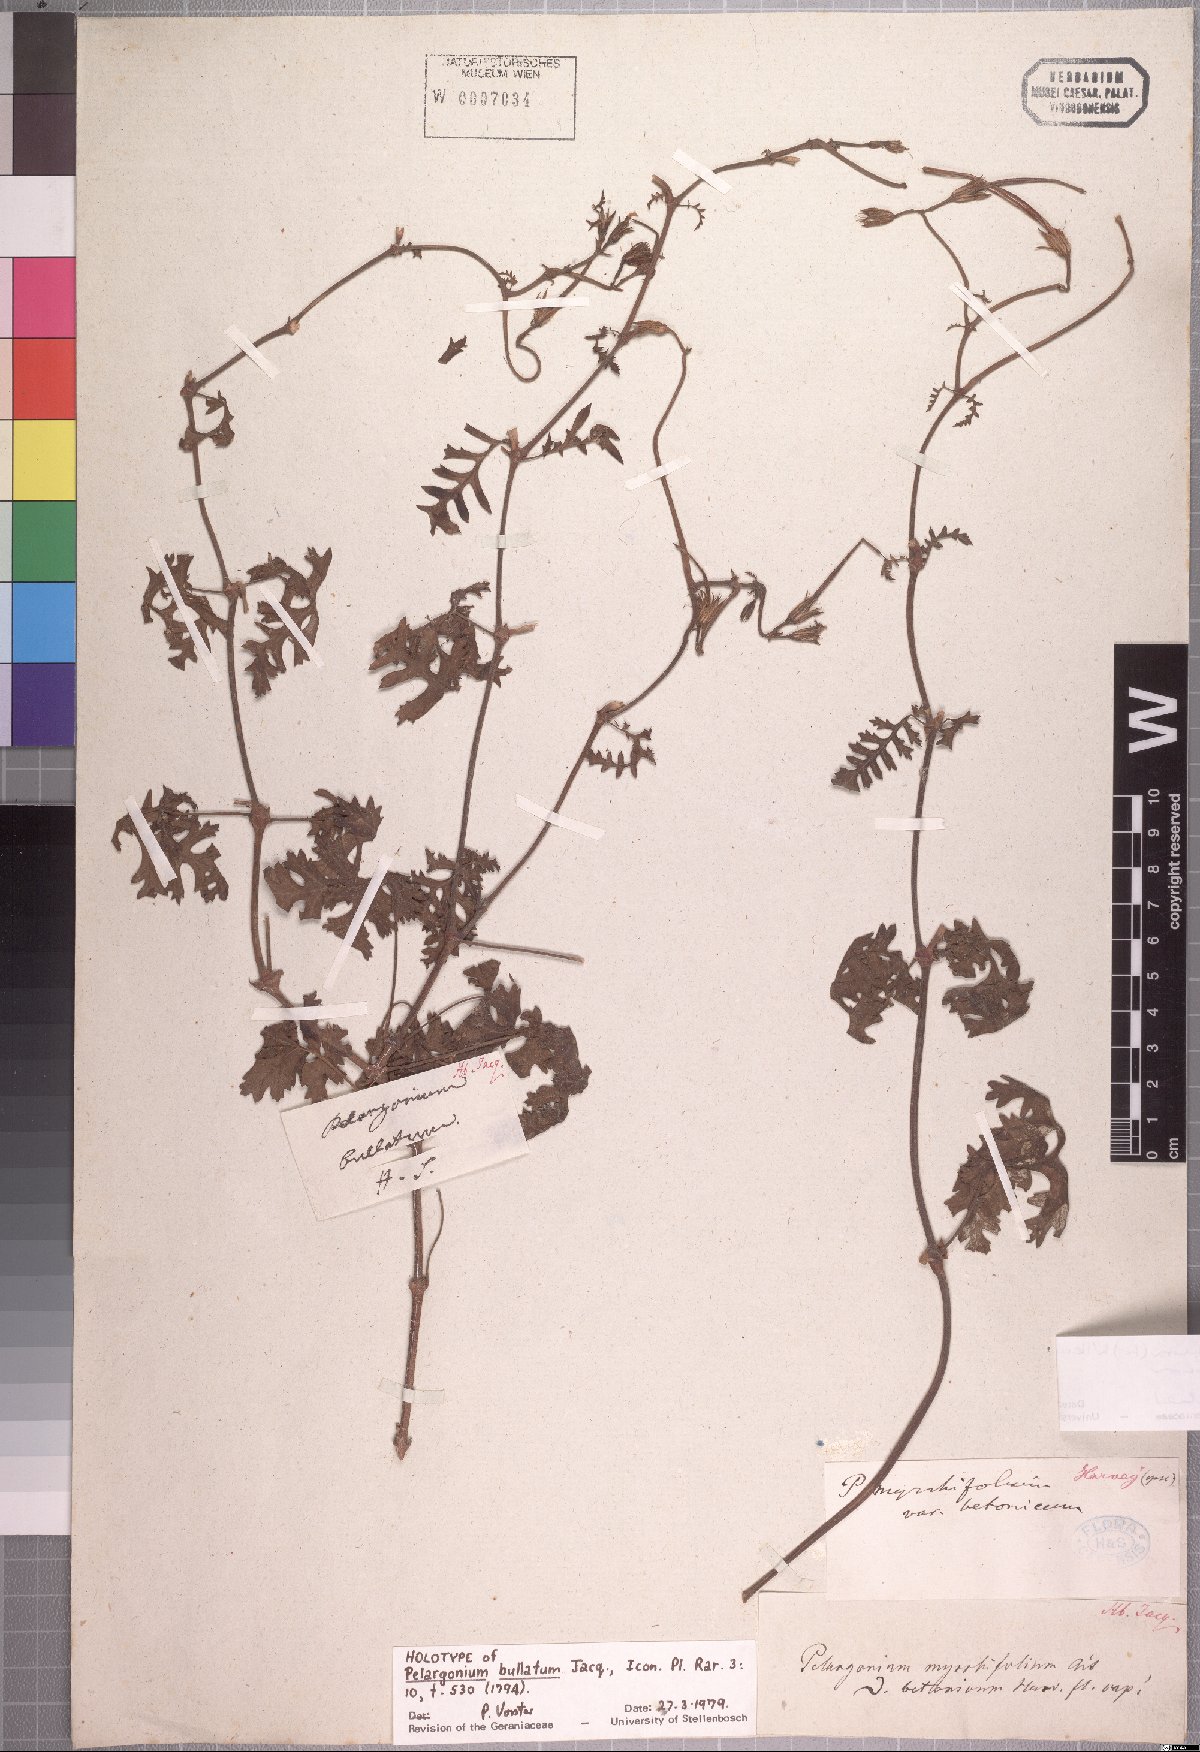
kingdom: Plantae
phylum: Tracheophyta
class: Magnoliopsida
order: Geraniales
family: Geraniaceae
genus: Pelargonium
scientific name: Pelargonium myrrhifolium
